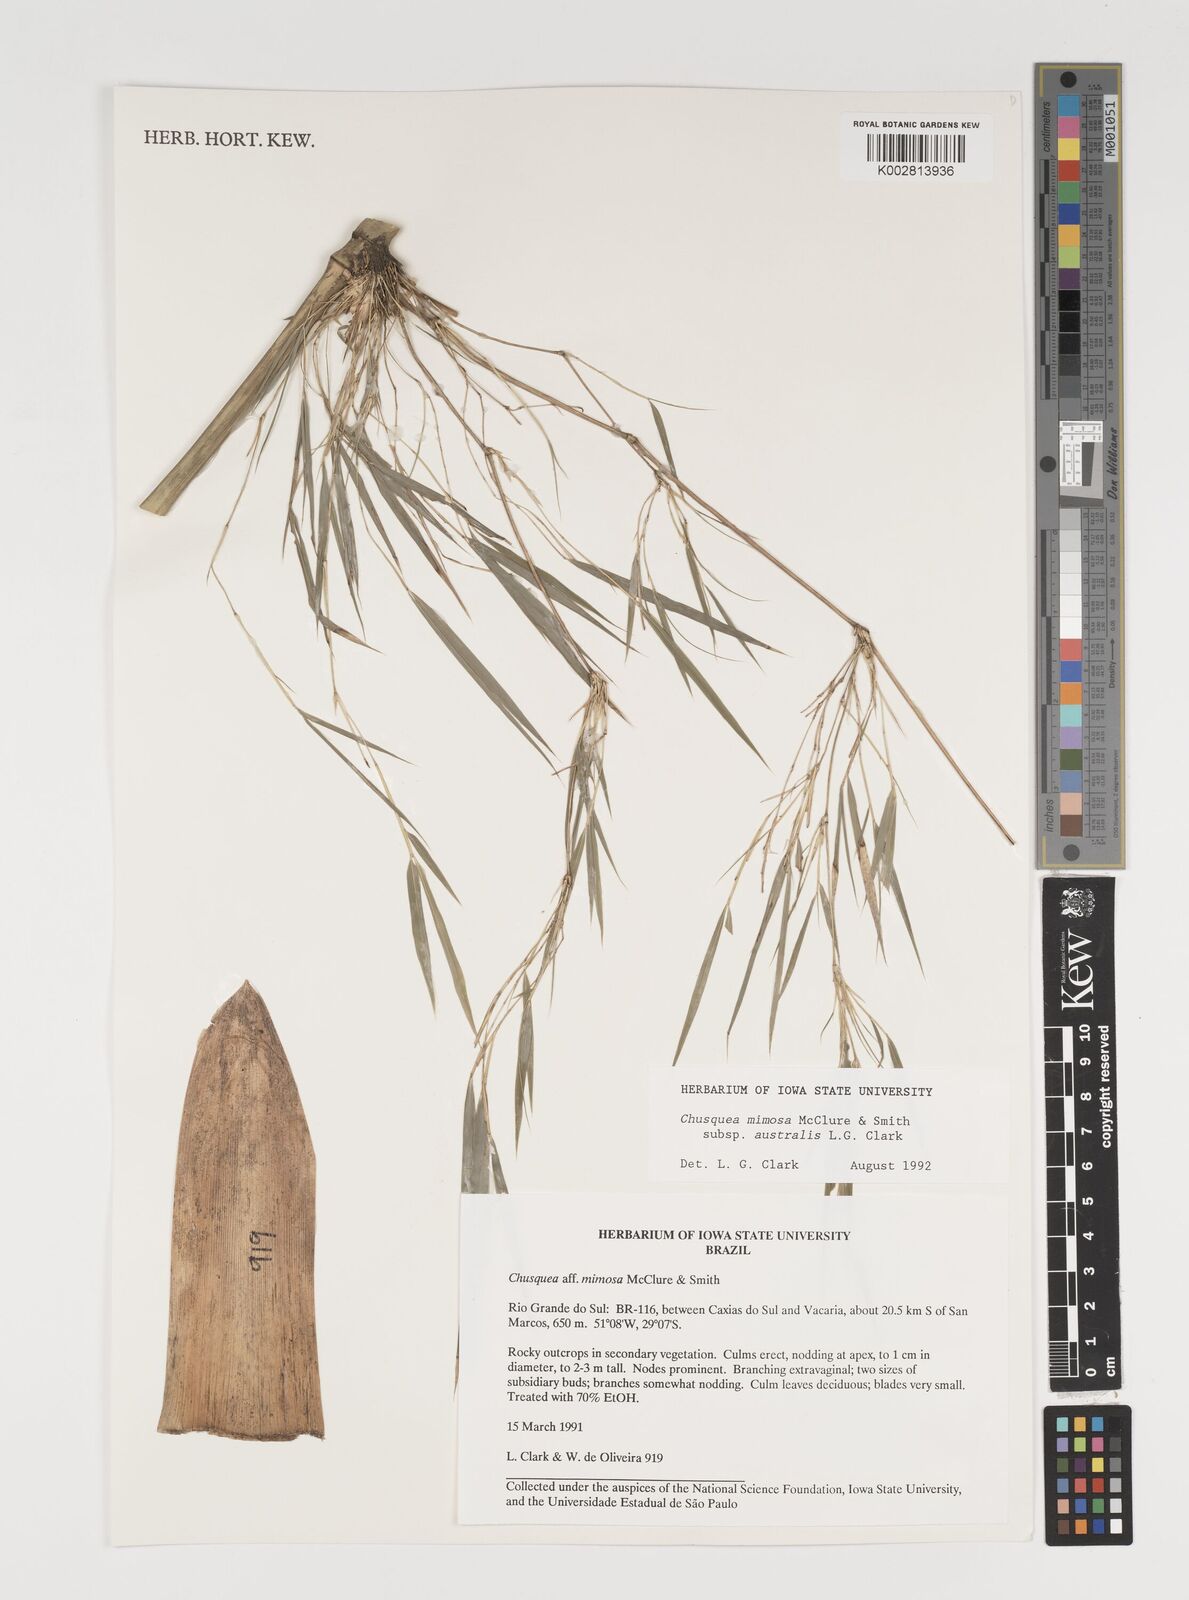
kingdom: Plantae
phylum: Tracheophyta
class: Liliopsida
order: Poales
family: Poaceae
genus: Chusquea
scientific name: Chusquea mimosa
